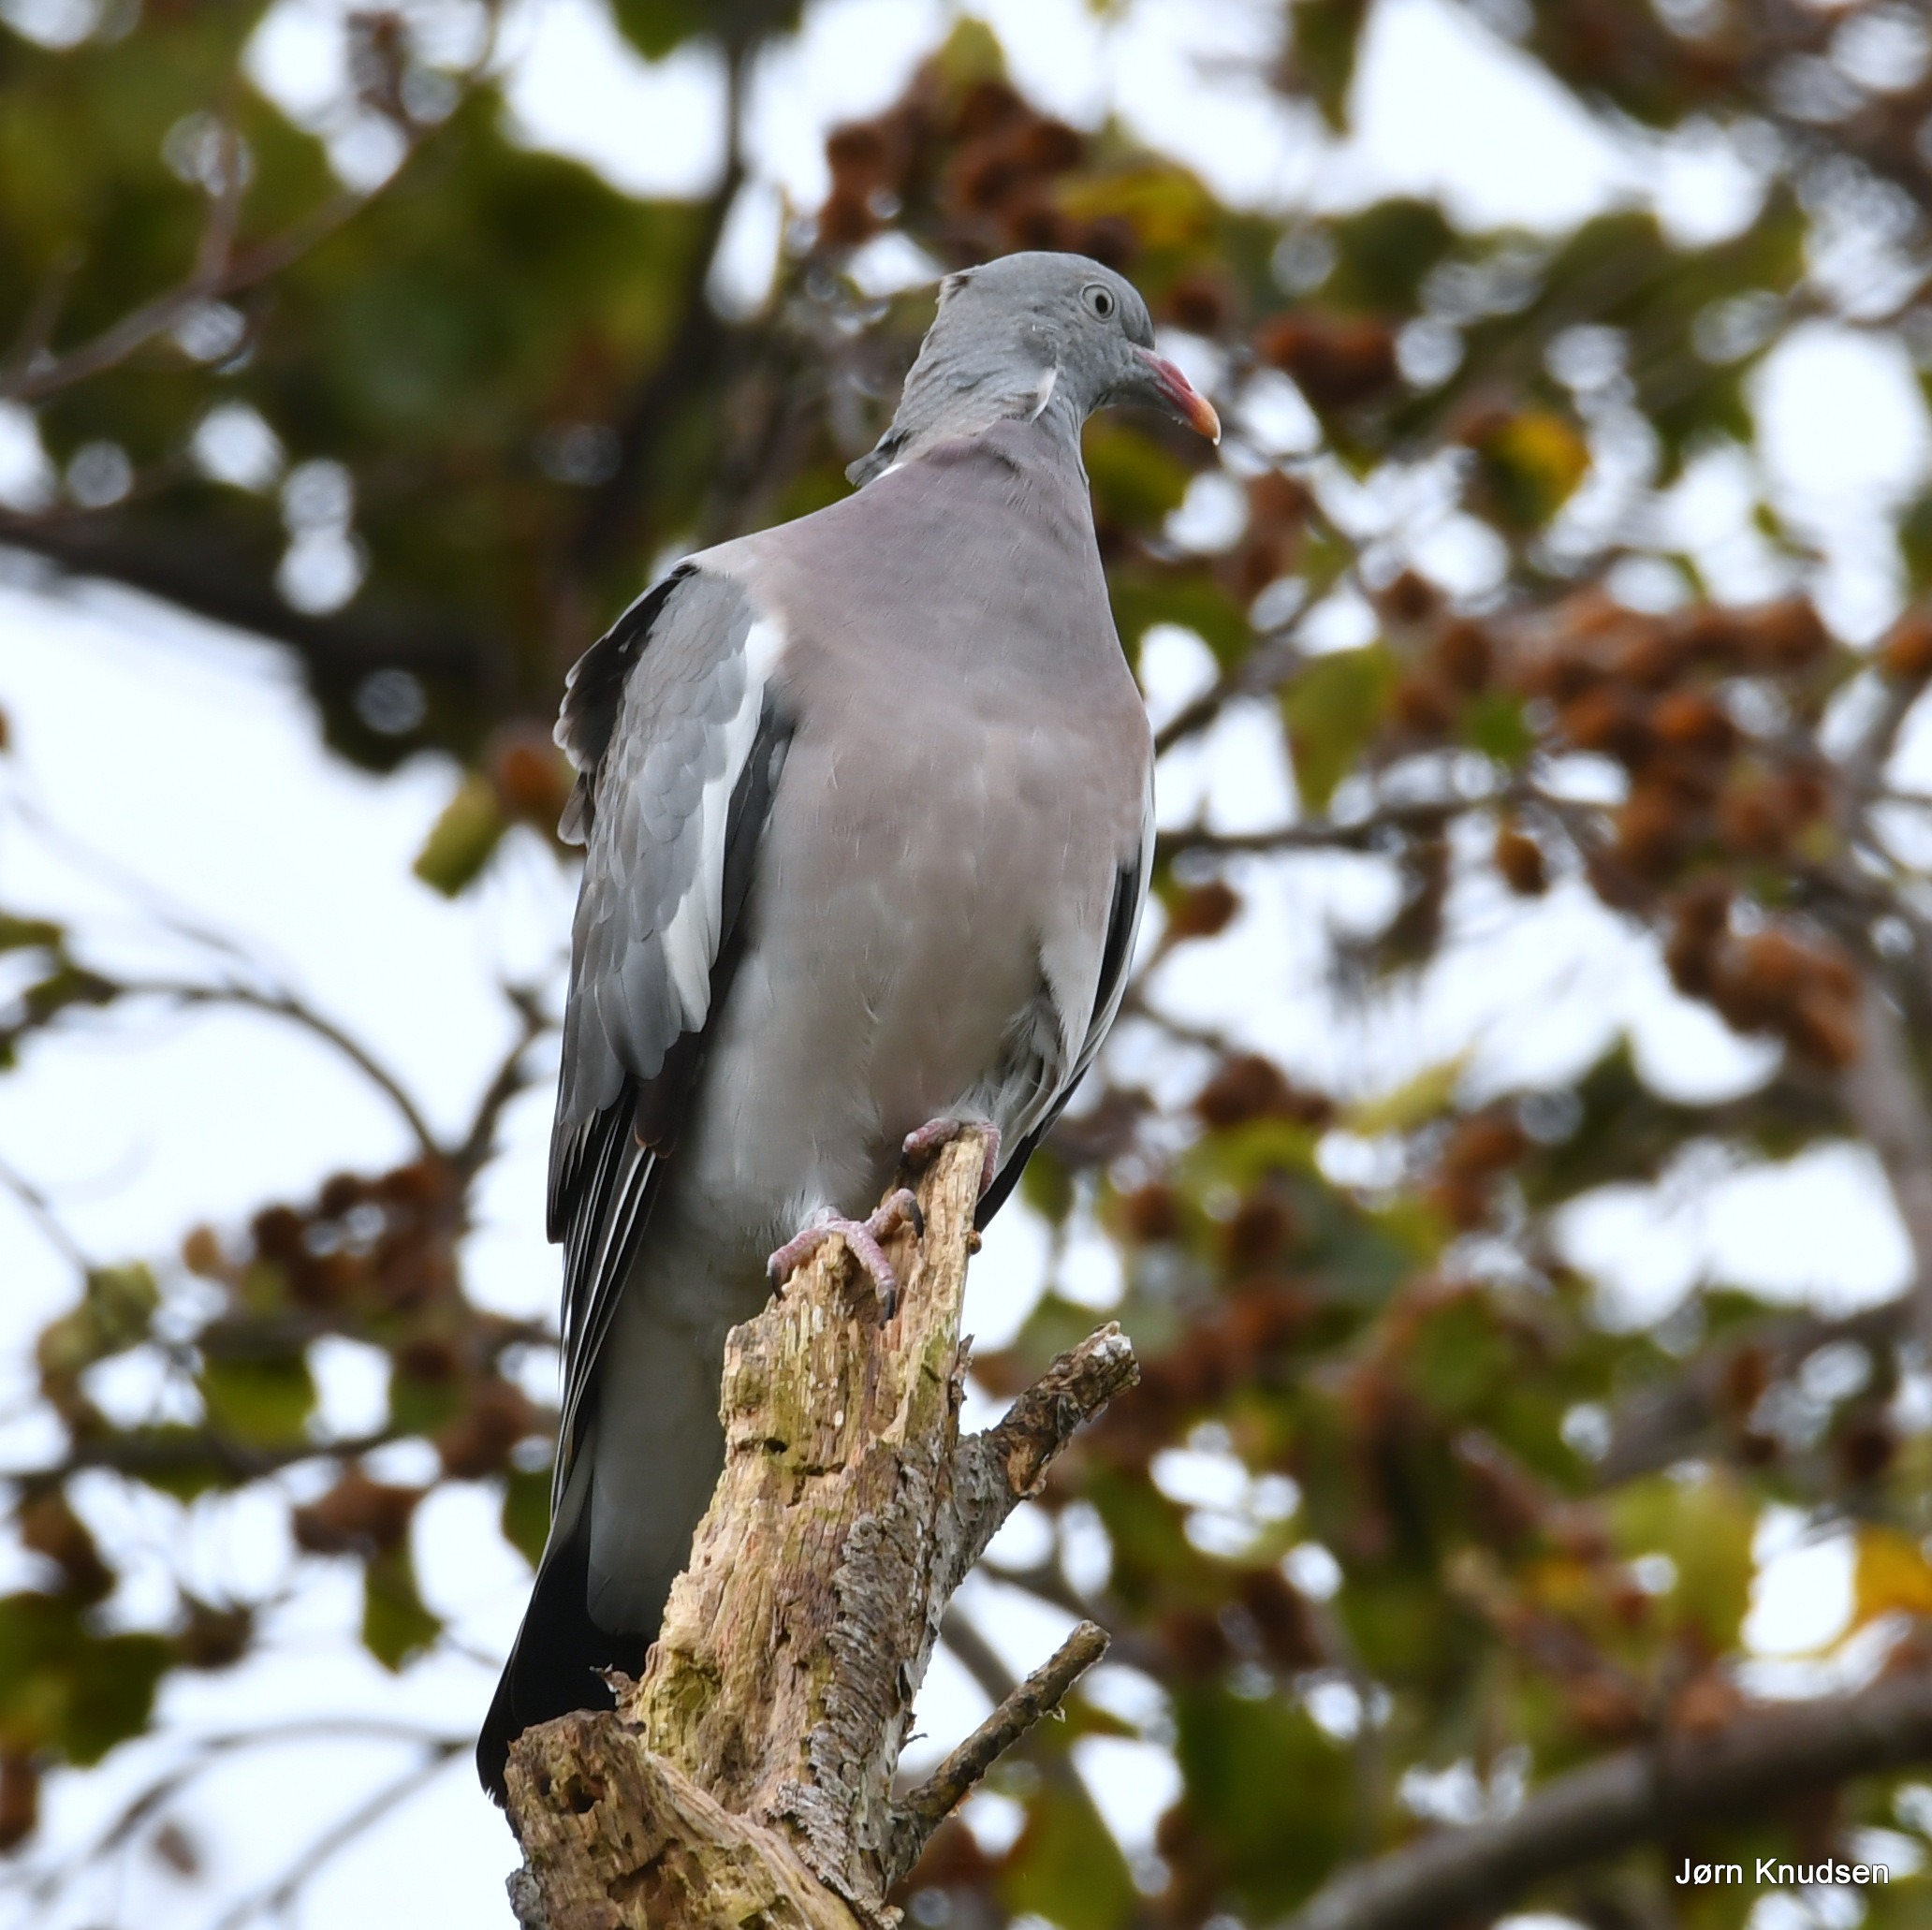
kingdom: Animalia
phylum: Chordata
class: Aves
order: Columbiformes
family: Columbidae
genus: Columba
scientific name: Columba palumbus
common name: Ringdue
